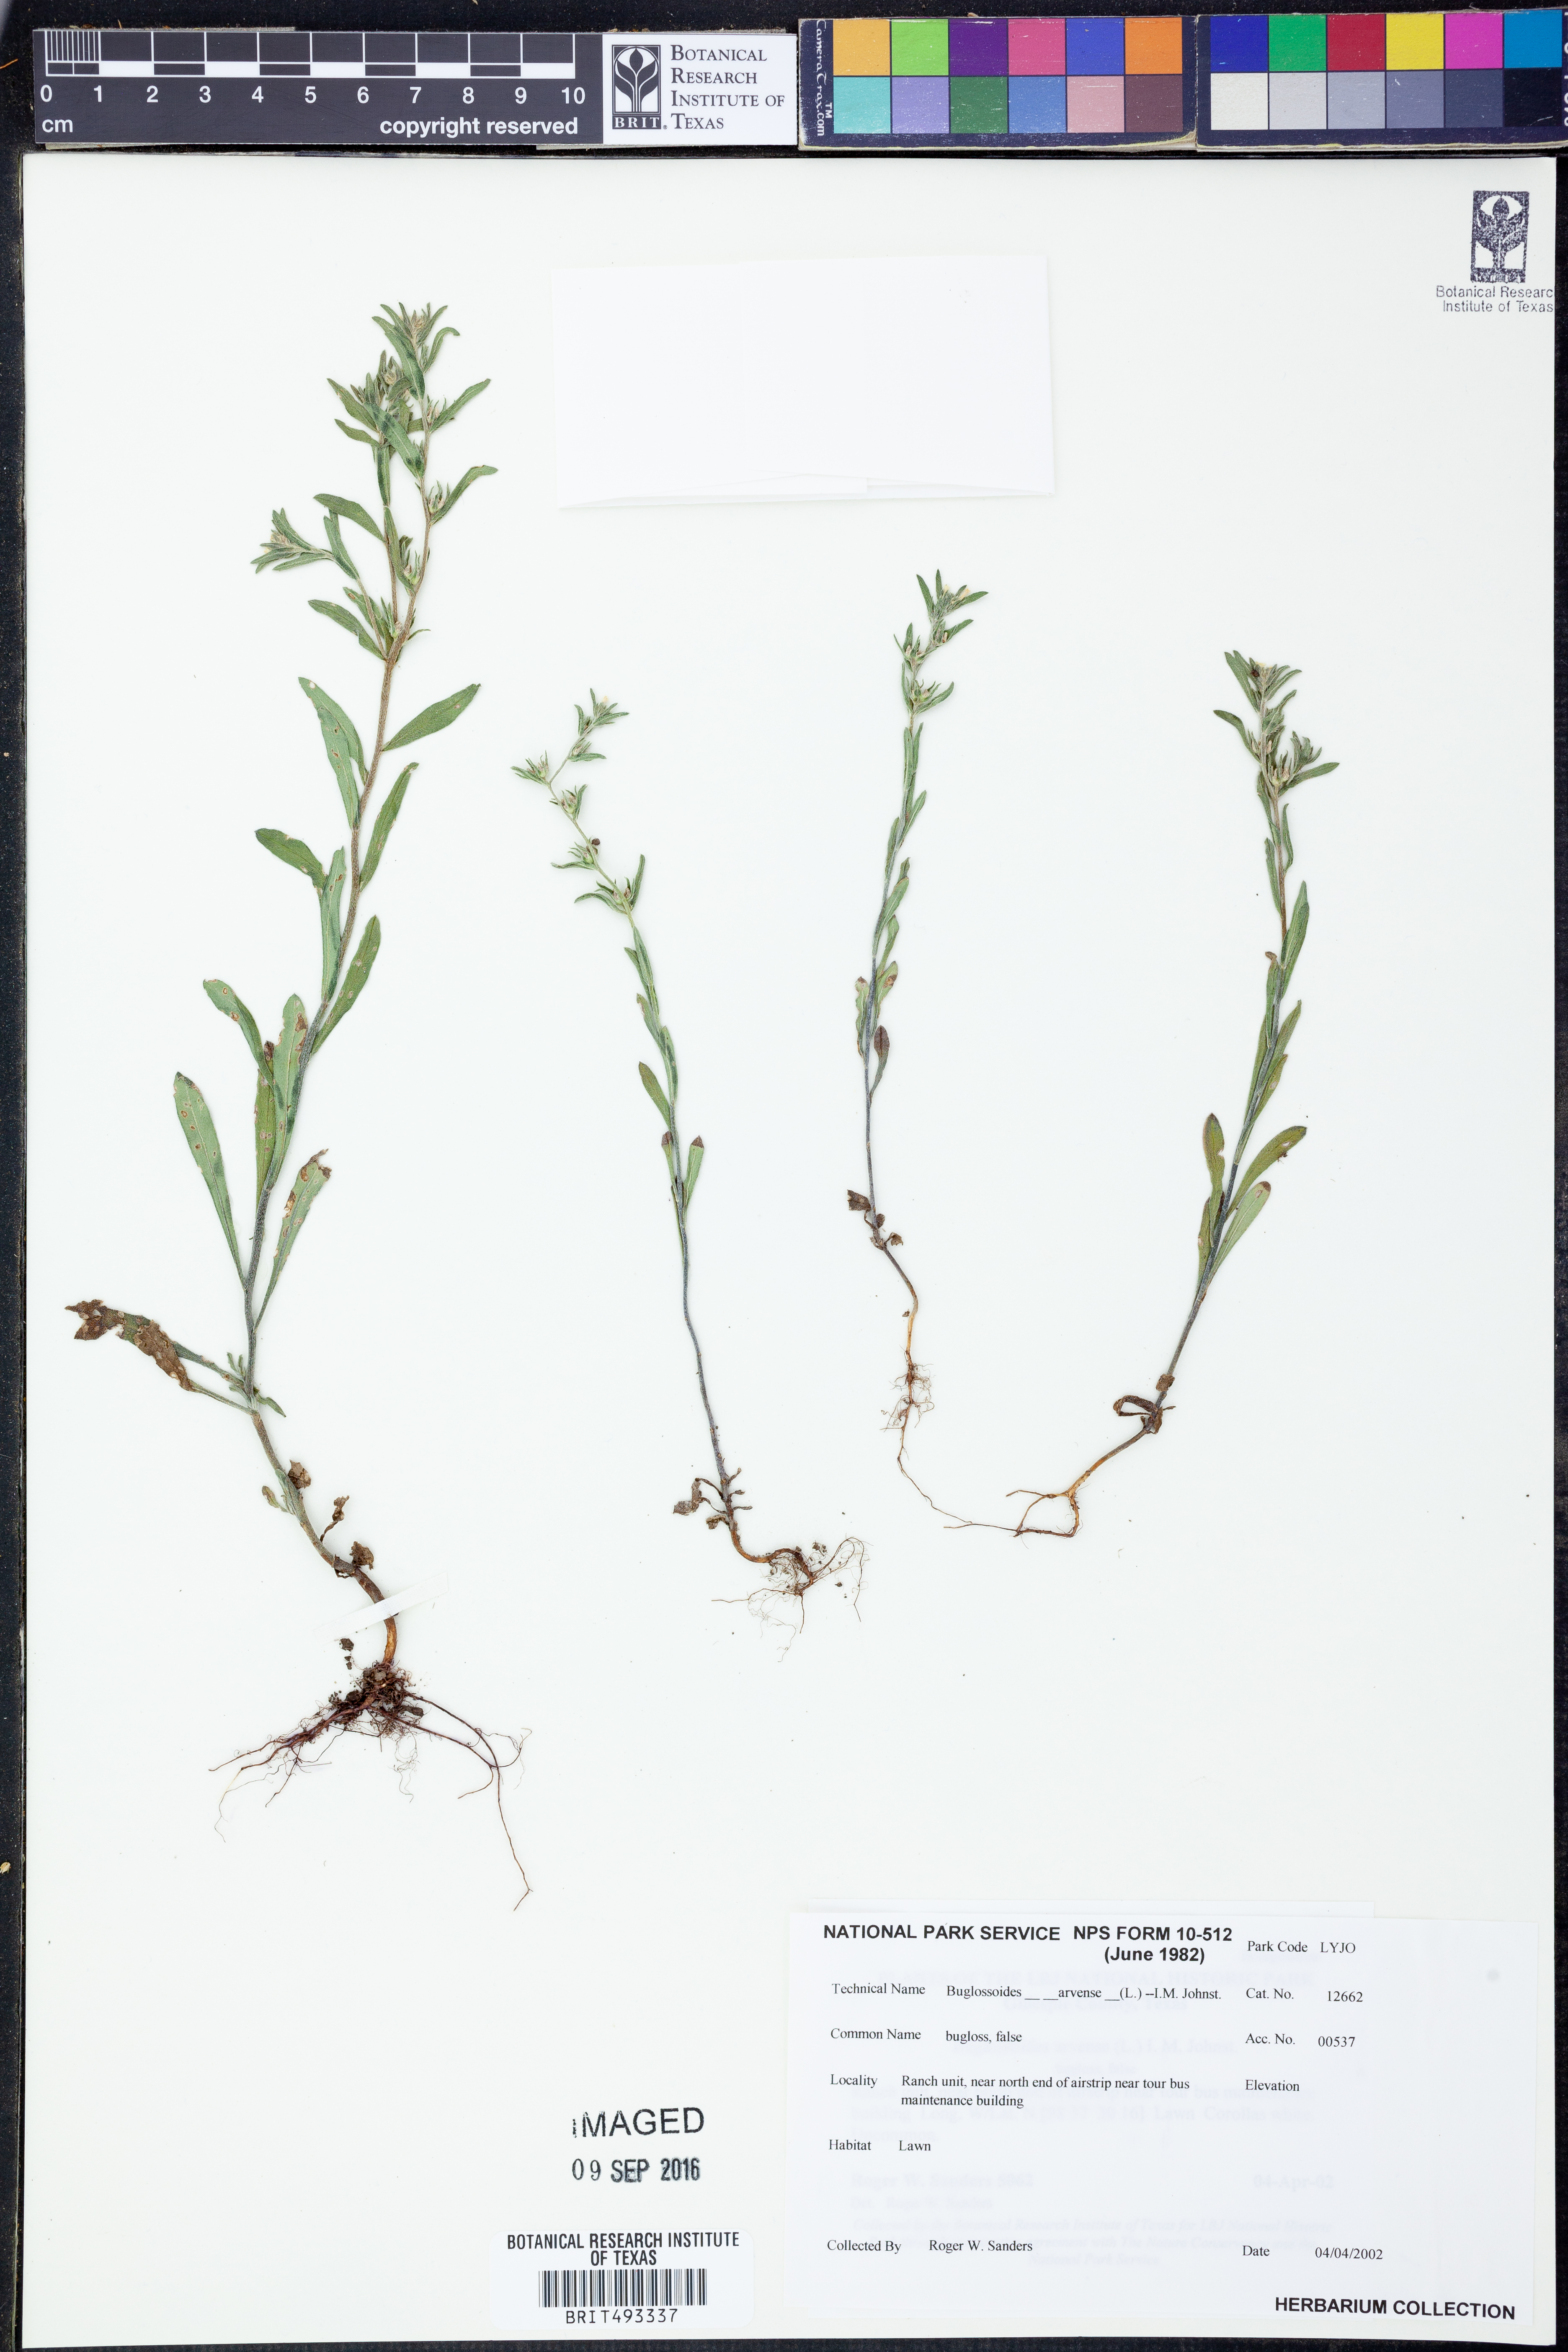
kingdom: Plantae
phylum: Tracheophyta
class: Magnoliopsida
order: Boraginales
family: Boraginaceae
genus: Buglossoides
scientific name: Buglossoides arvensis
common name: Corn gromwell
